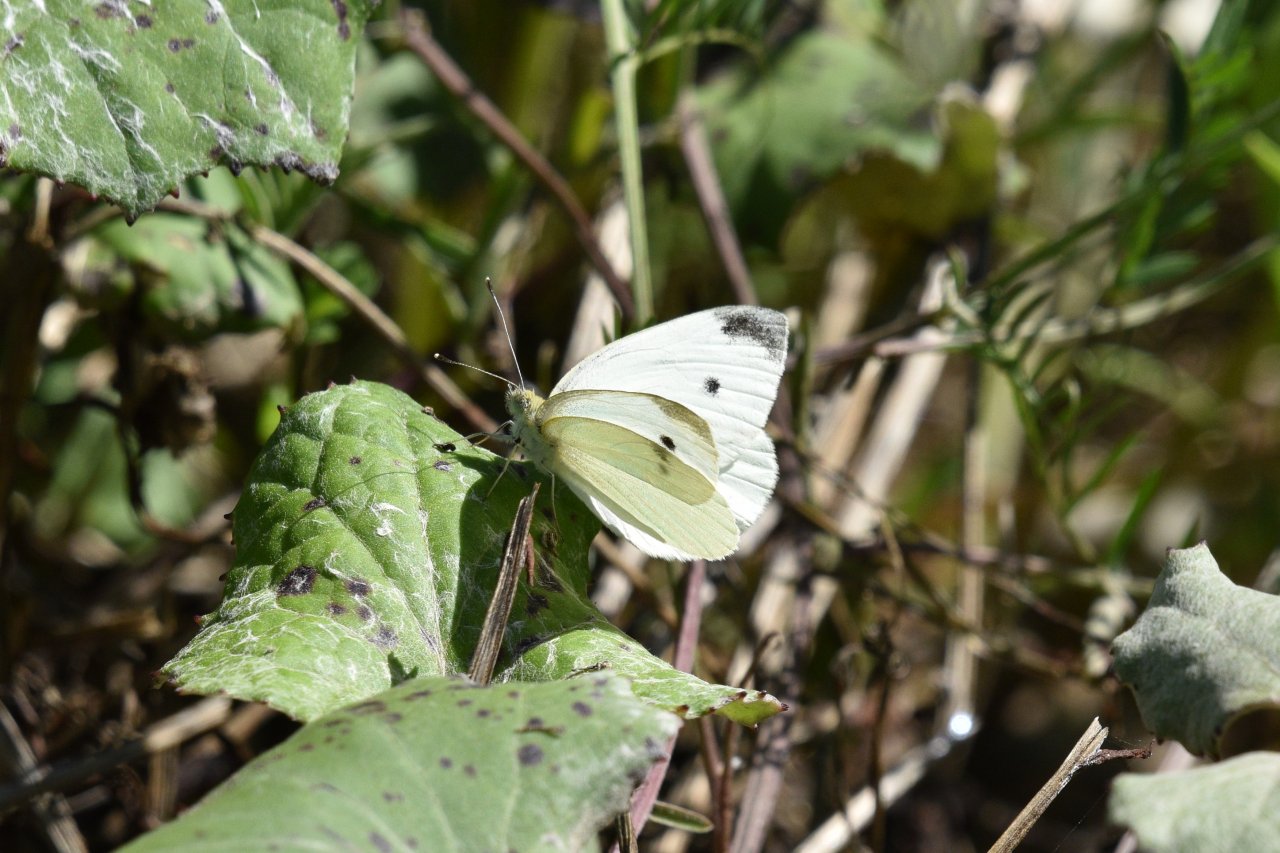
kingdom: Animalia
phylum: Arthropoda
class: Insecta
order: Lepidoptera
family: Pieridae
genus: Pieris
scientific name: Pieris rapae
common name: Cabbage White
